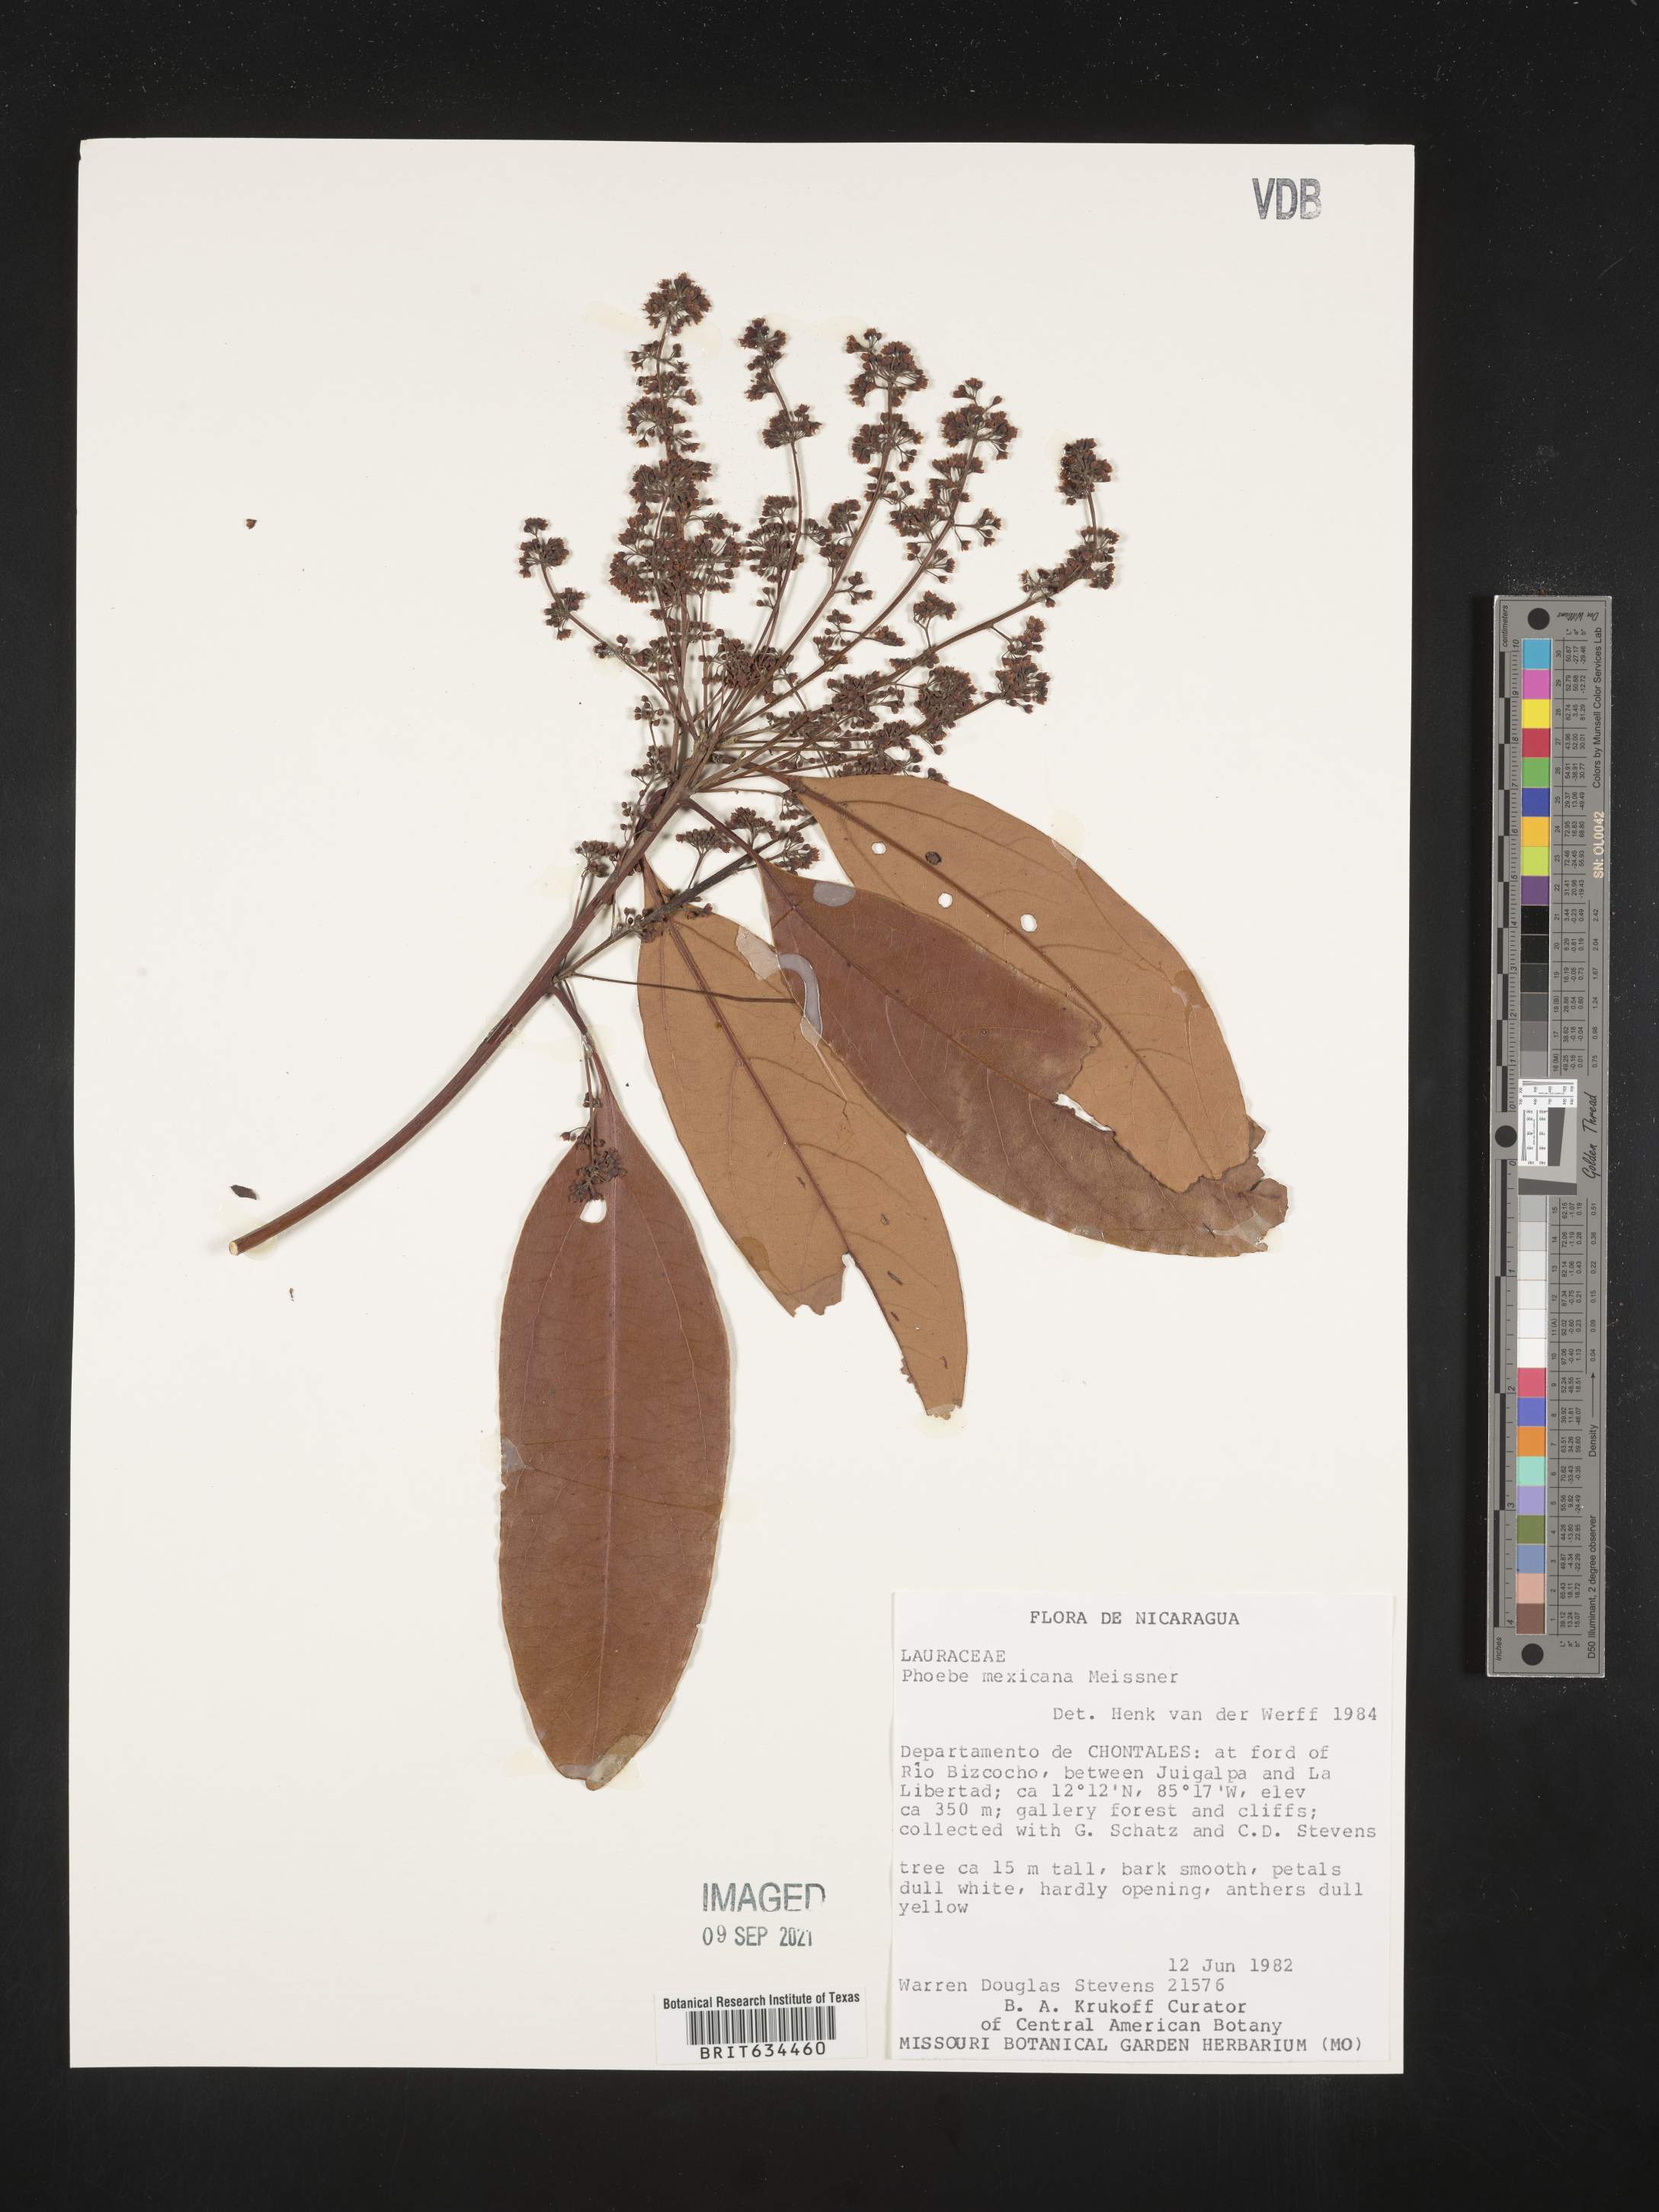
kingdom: Plantae
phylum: Tracheophyta
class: Magnoliopsida
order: Laurales
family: Lauraceae
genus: Phoebe
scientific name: Phoebe
